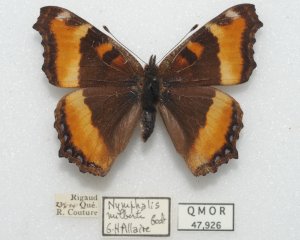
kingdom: Animalia
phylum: Arthropoda
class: Insecta
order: Lepidoptera
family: Nymphalidae
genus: Aglais
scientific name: Aglais milberti
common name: Milbert's Tortoiseshell
